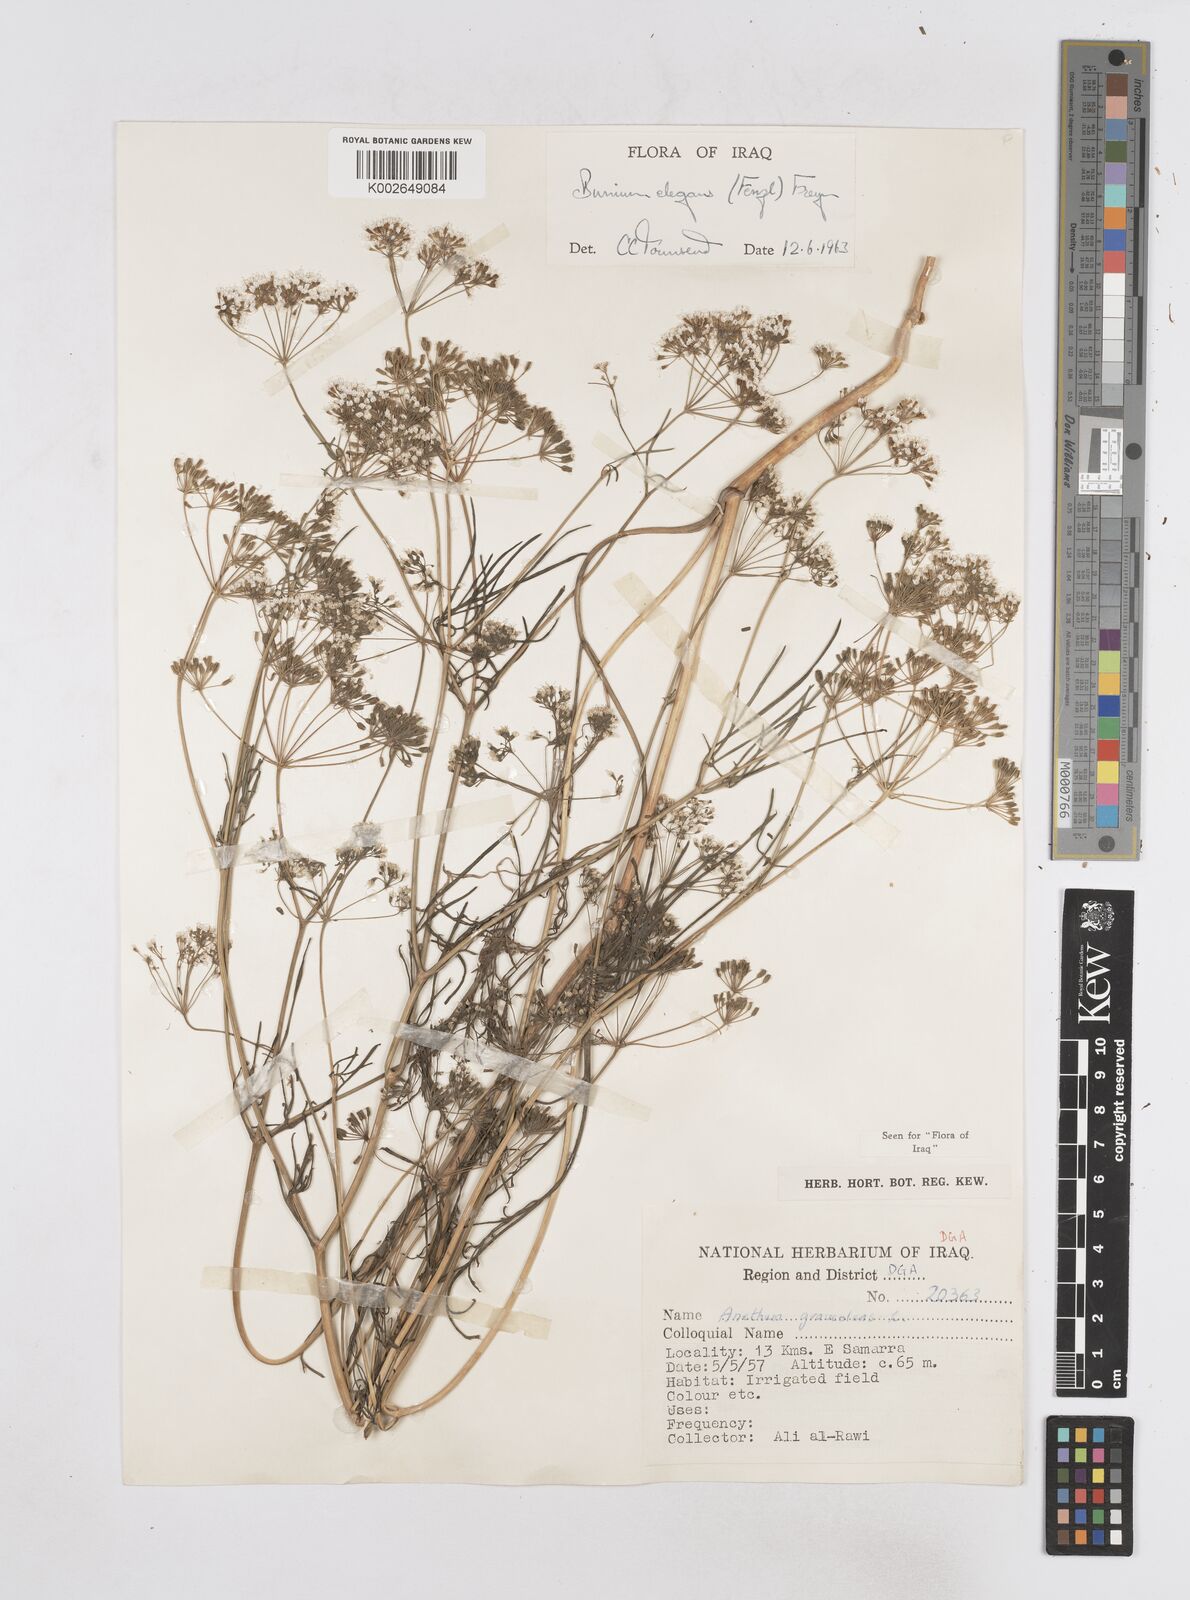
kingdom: Plantae
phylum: Tracheophyta
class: Magnoliopsida
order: Apiales
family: Apiaceae
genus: Bunium
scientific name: Bunium elegans
